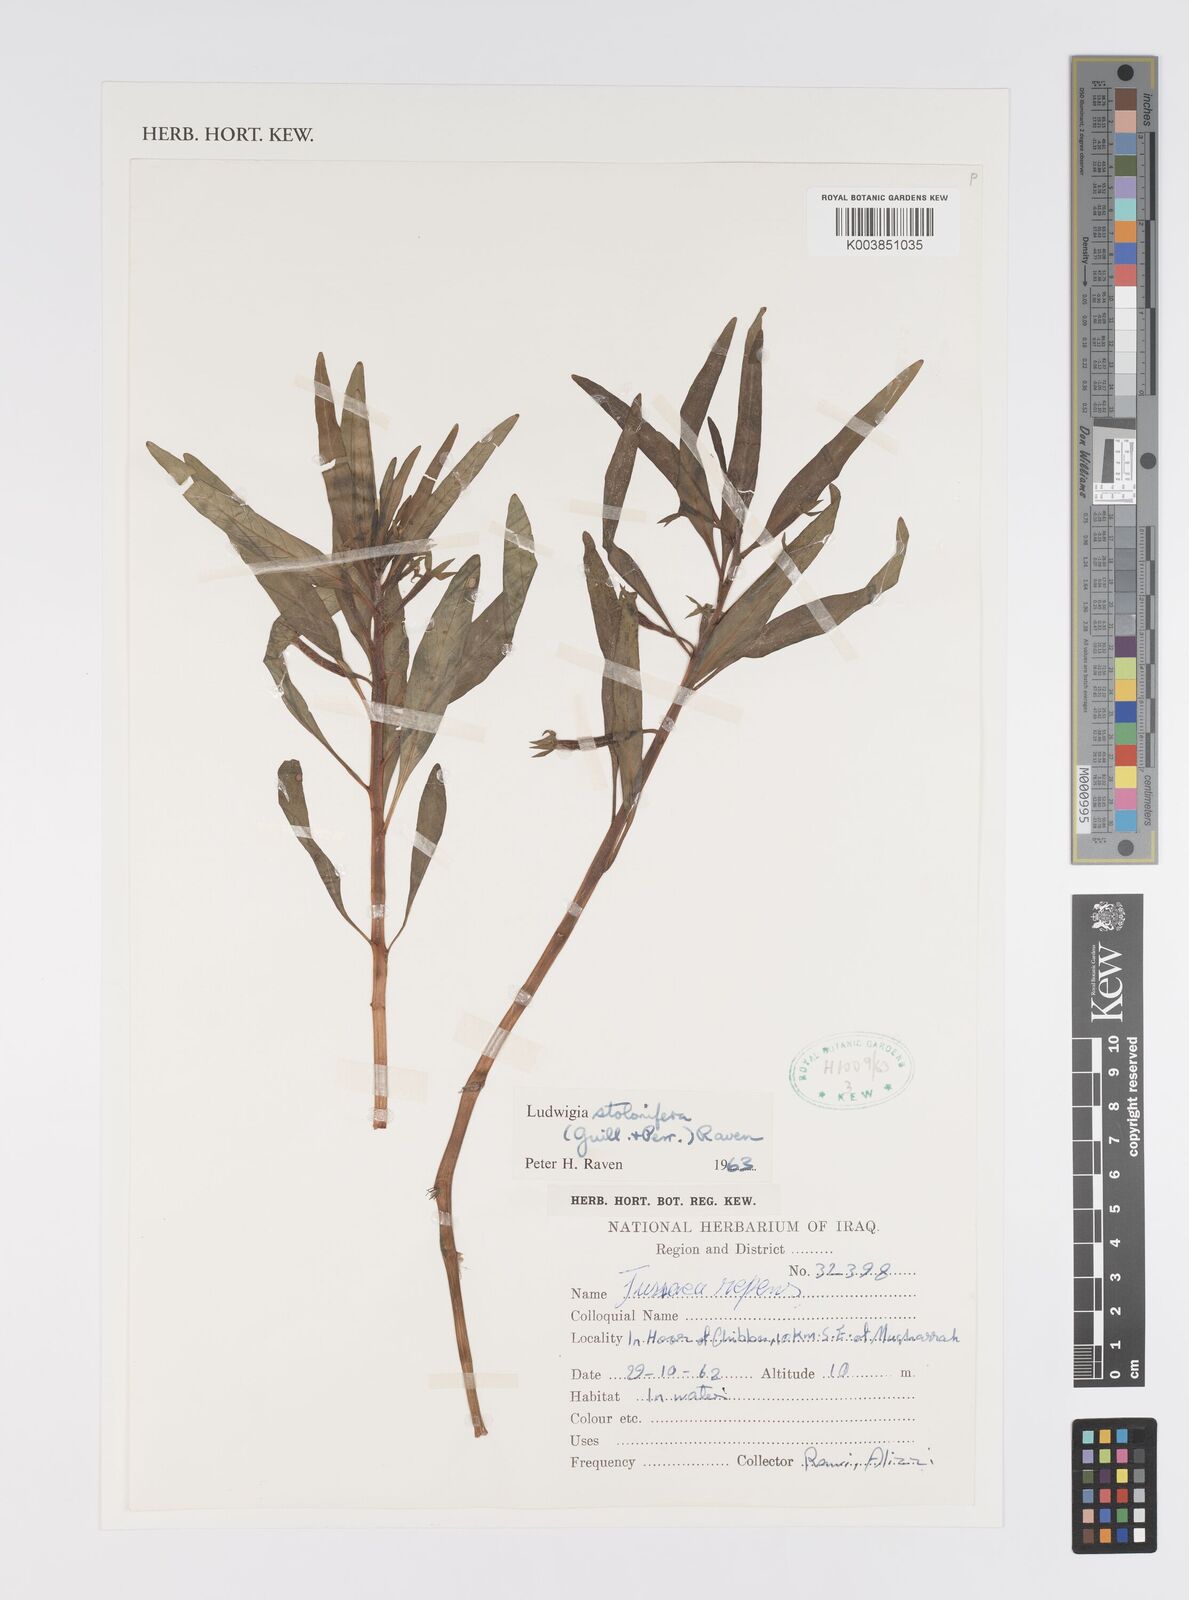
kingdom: Plantae
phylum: Tracheophyta
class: Magnoliopsida
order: Myrtales
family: Onagraceae
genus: Ludwigia
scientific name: Ludwigia adscendens
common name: Creeping water primrose
